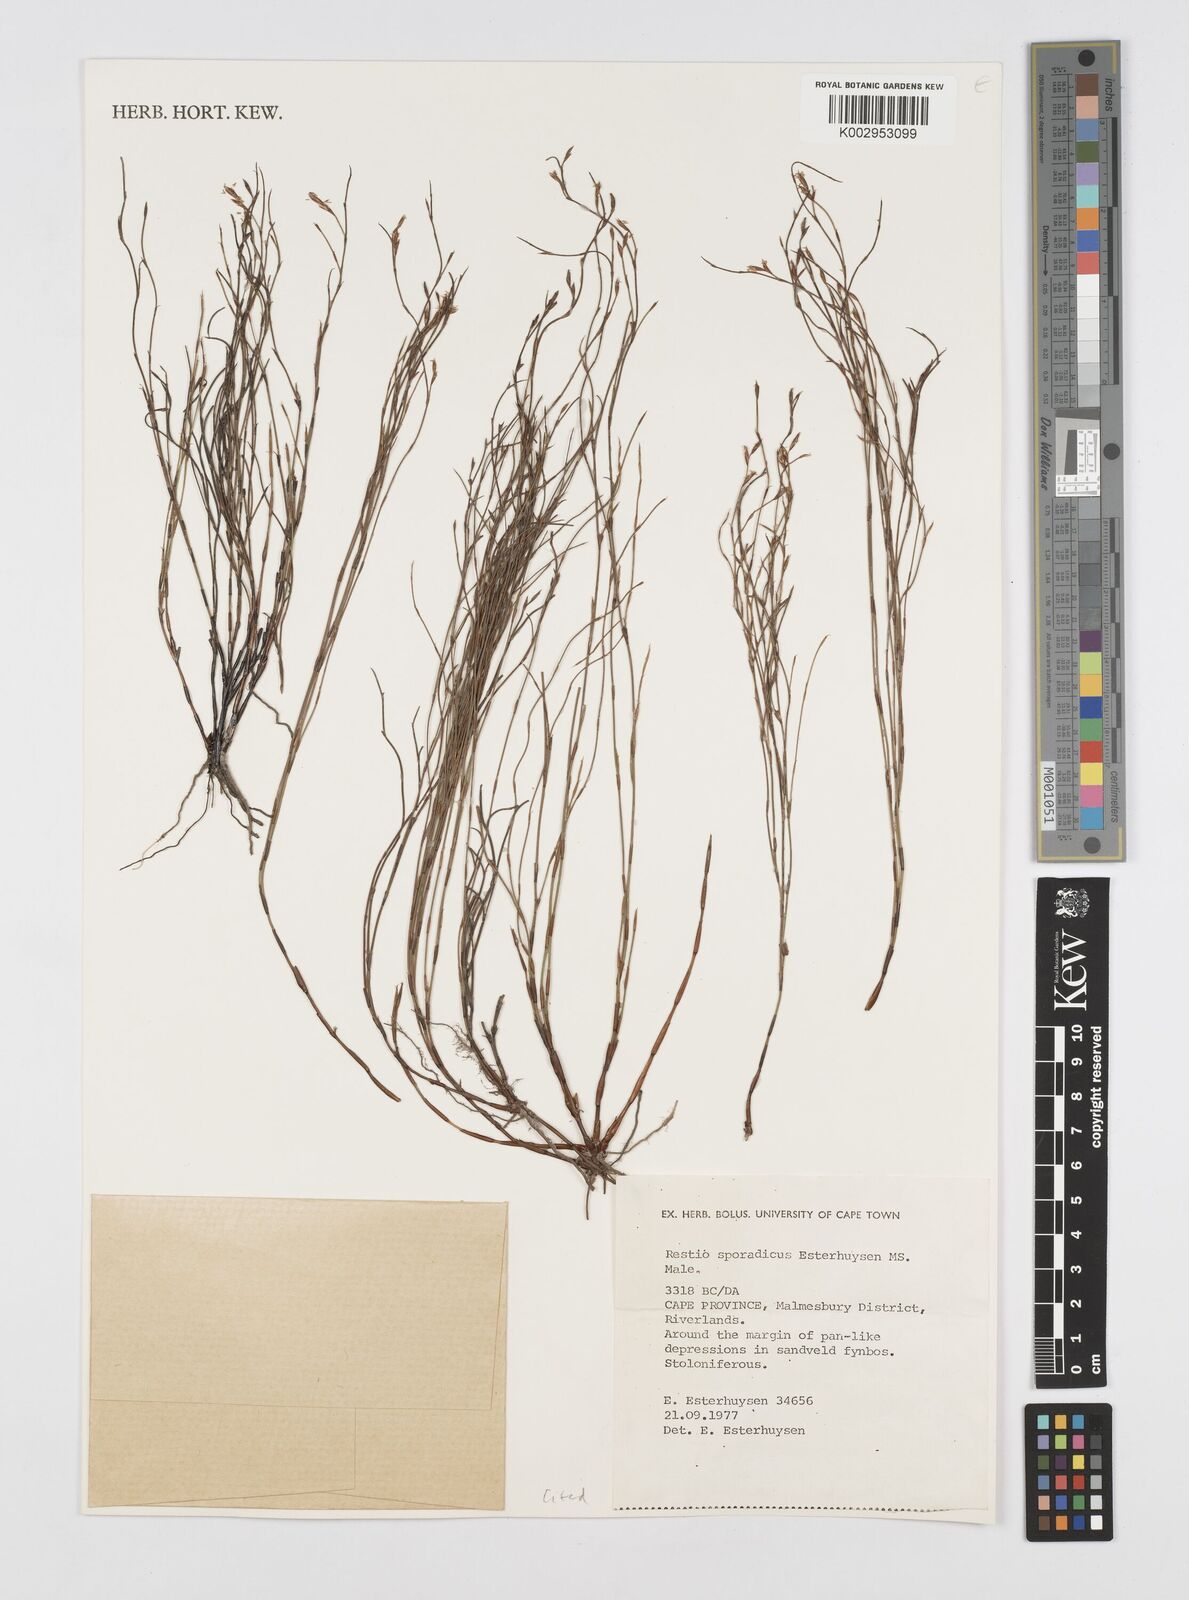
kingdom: Plantae
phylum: Tracheophyta
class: Liliopsida
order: Poales
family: Restionaceae
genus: Restio
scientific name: Restio sporadicus
